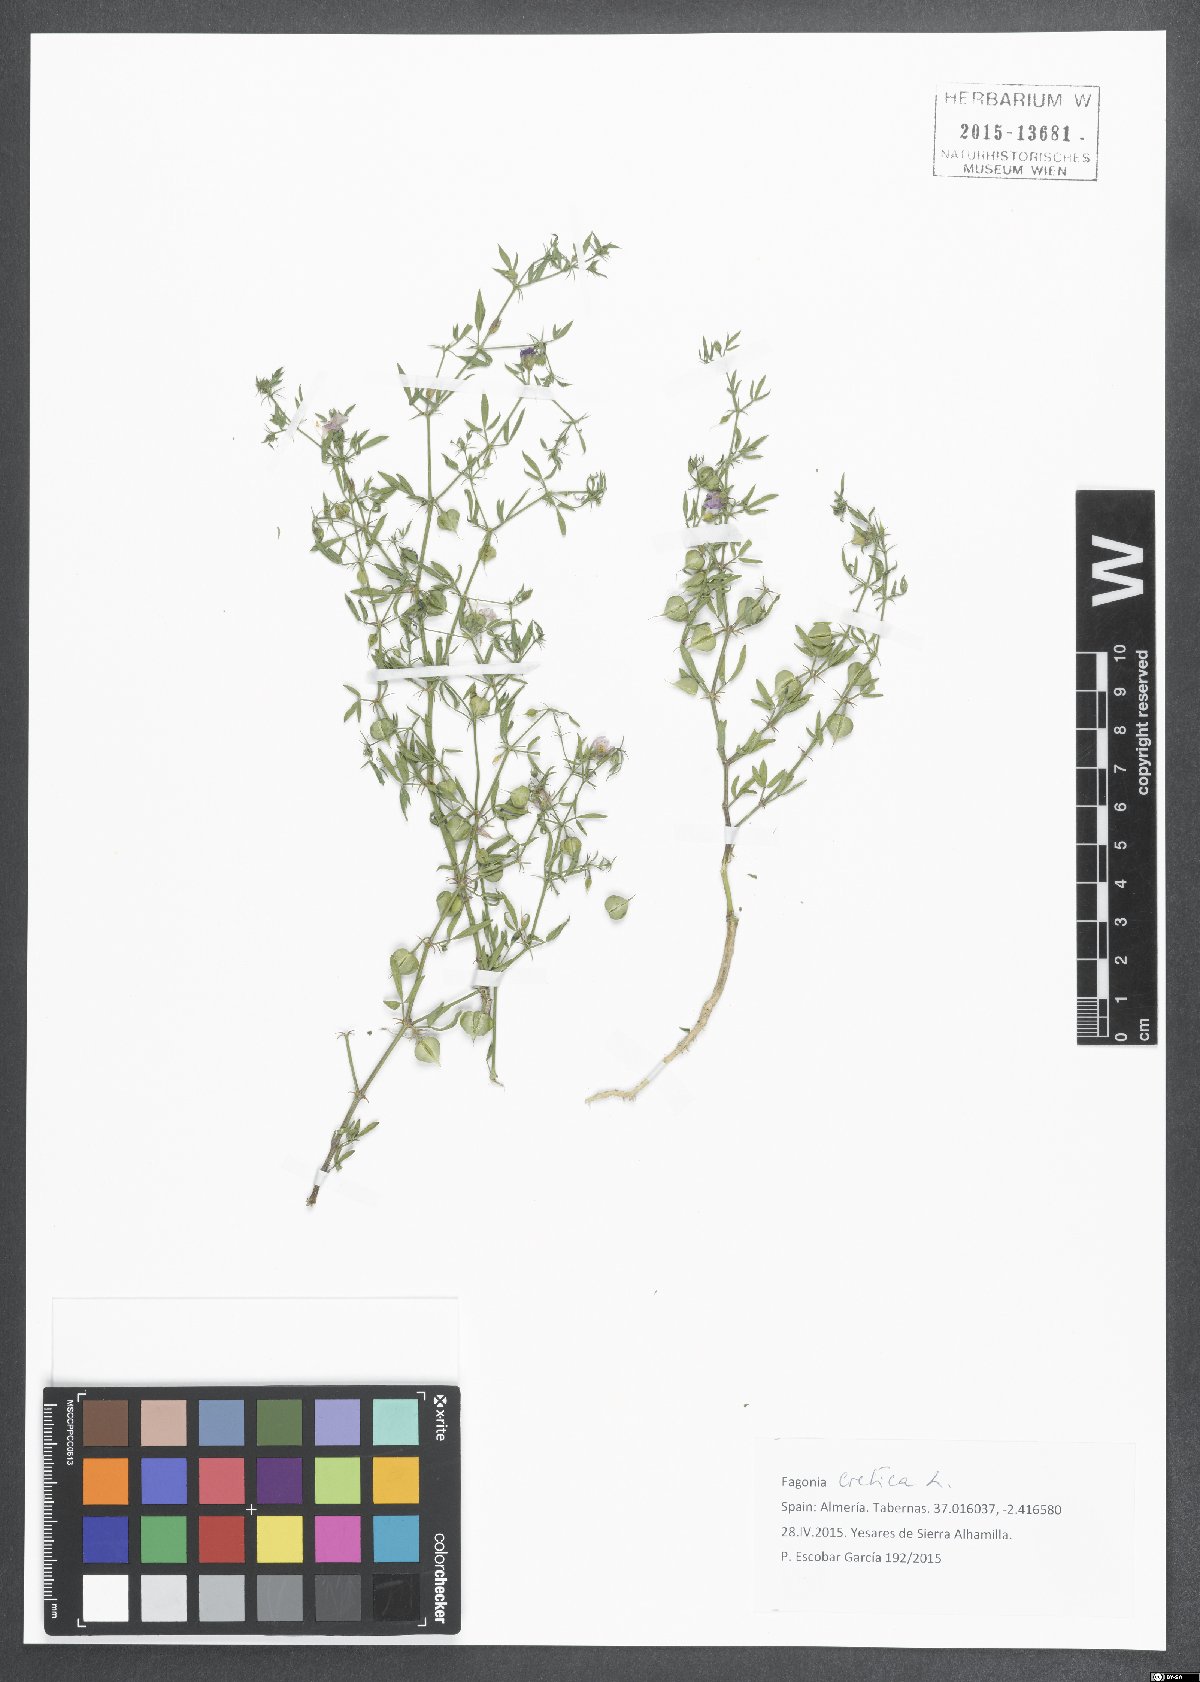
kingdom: Plantae
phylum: Tracheophyta
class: Magnoliopsida
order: Zygophyllales
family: Zygophyllaceae
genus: Fagonia
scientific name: Fagonia cretica
